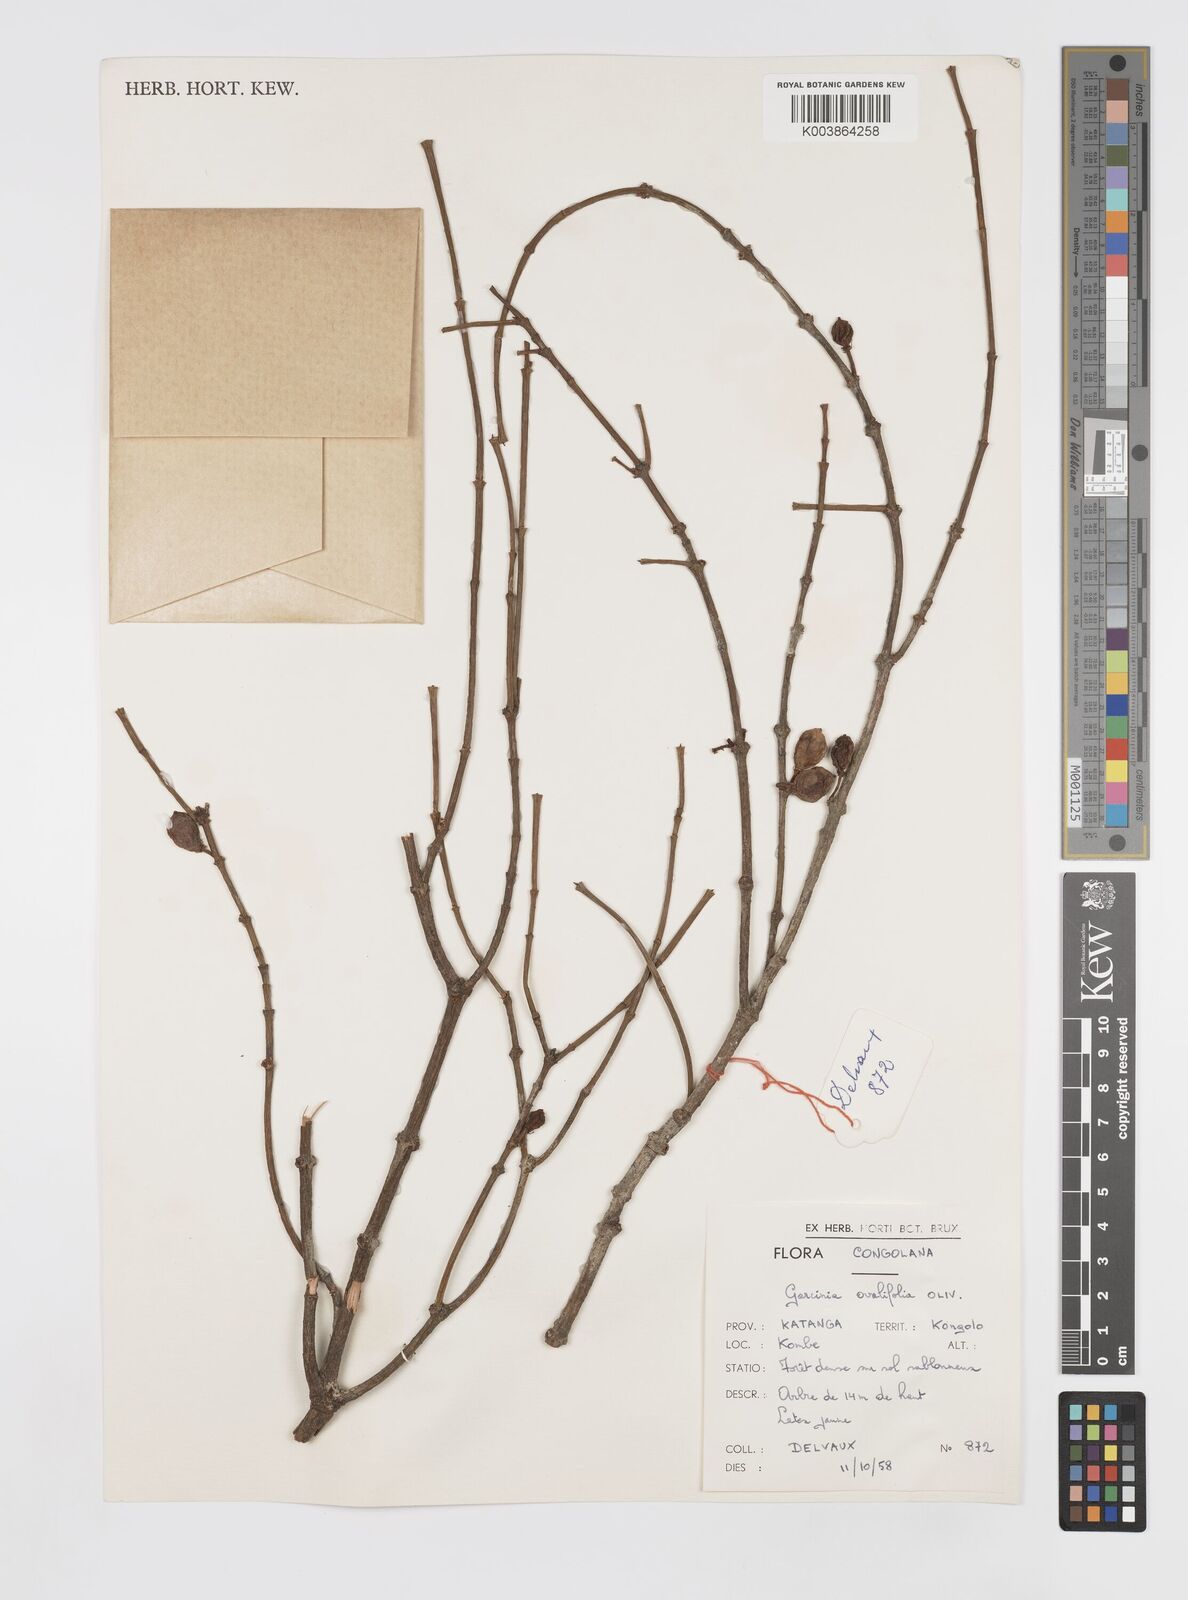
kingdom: Plantae
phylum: Tracheophyta
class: Magnoliopsida
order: Malpighiales
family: Clusiaceae
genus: Garcinia
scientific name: Garcinia ovalifolia
